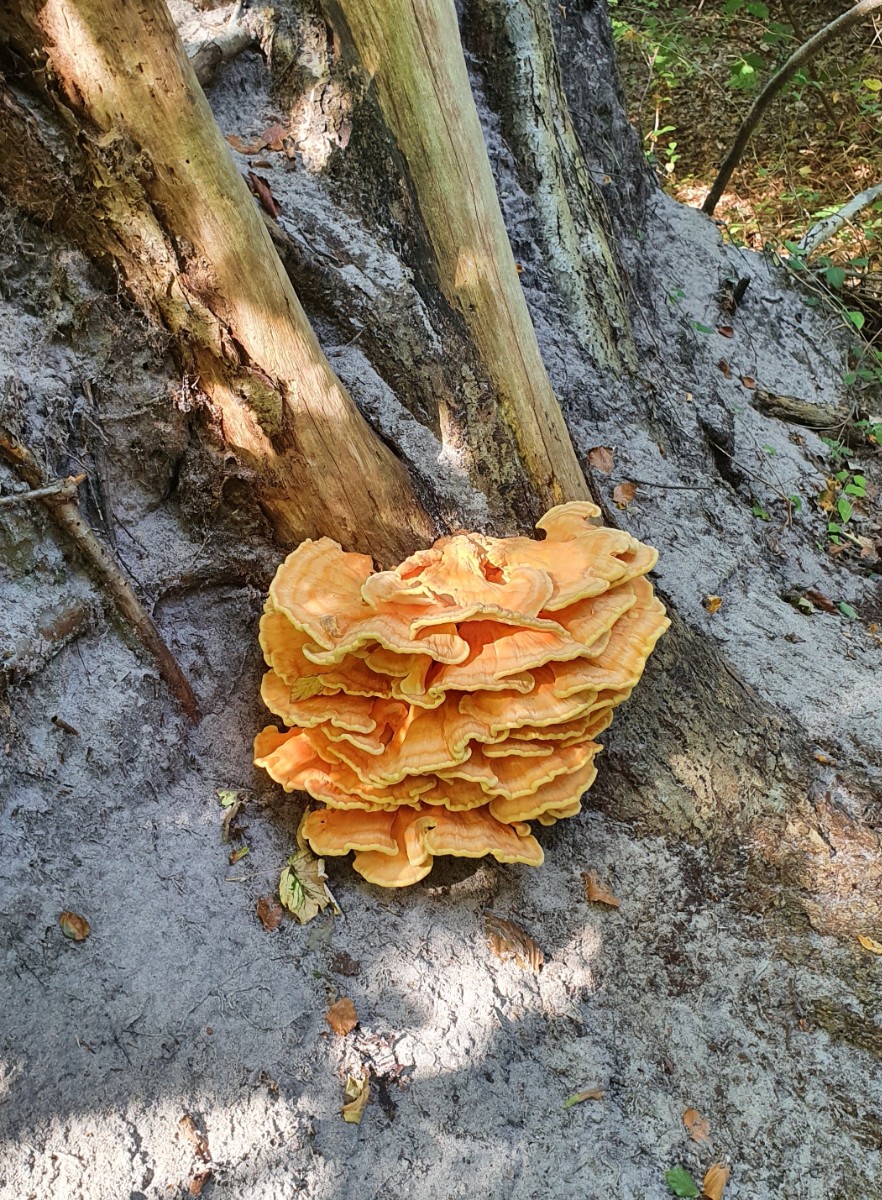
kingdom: Fungi
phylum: Basidiomycota
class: Agaricomycetes
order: Polyporales
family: Laetiporaceae
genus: Laetiporus
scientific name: Laetiporus sulphureus
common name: svovlporesvamp
